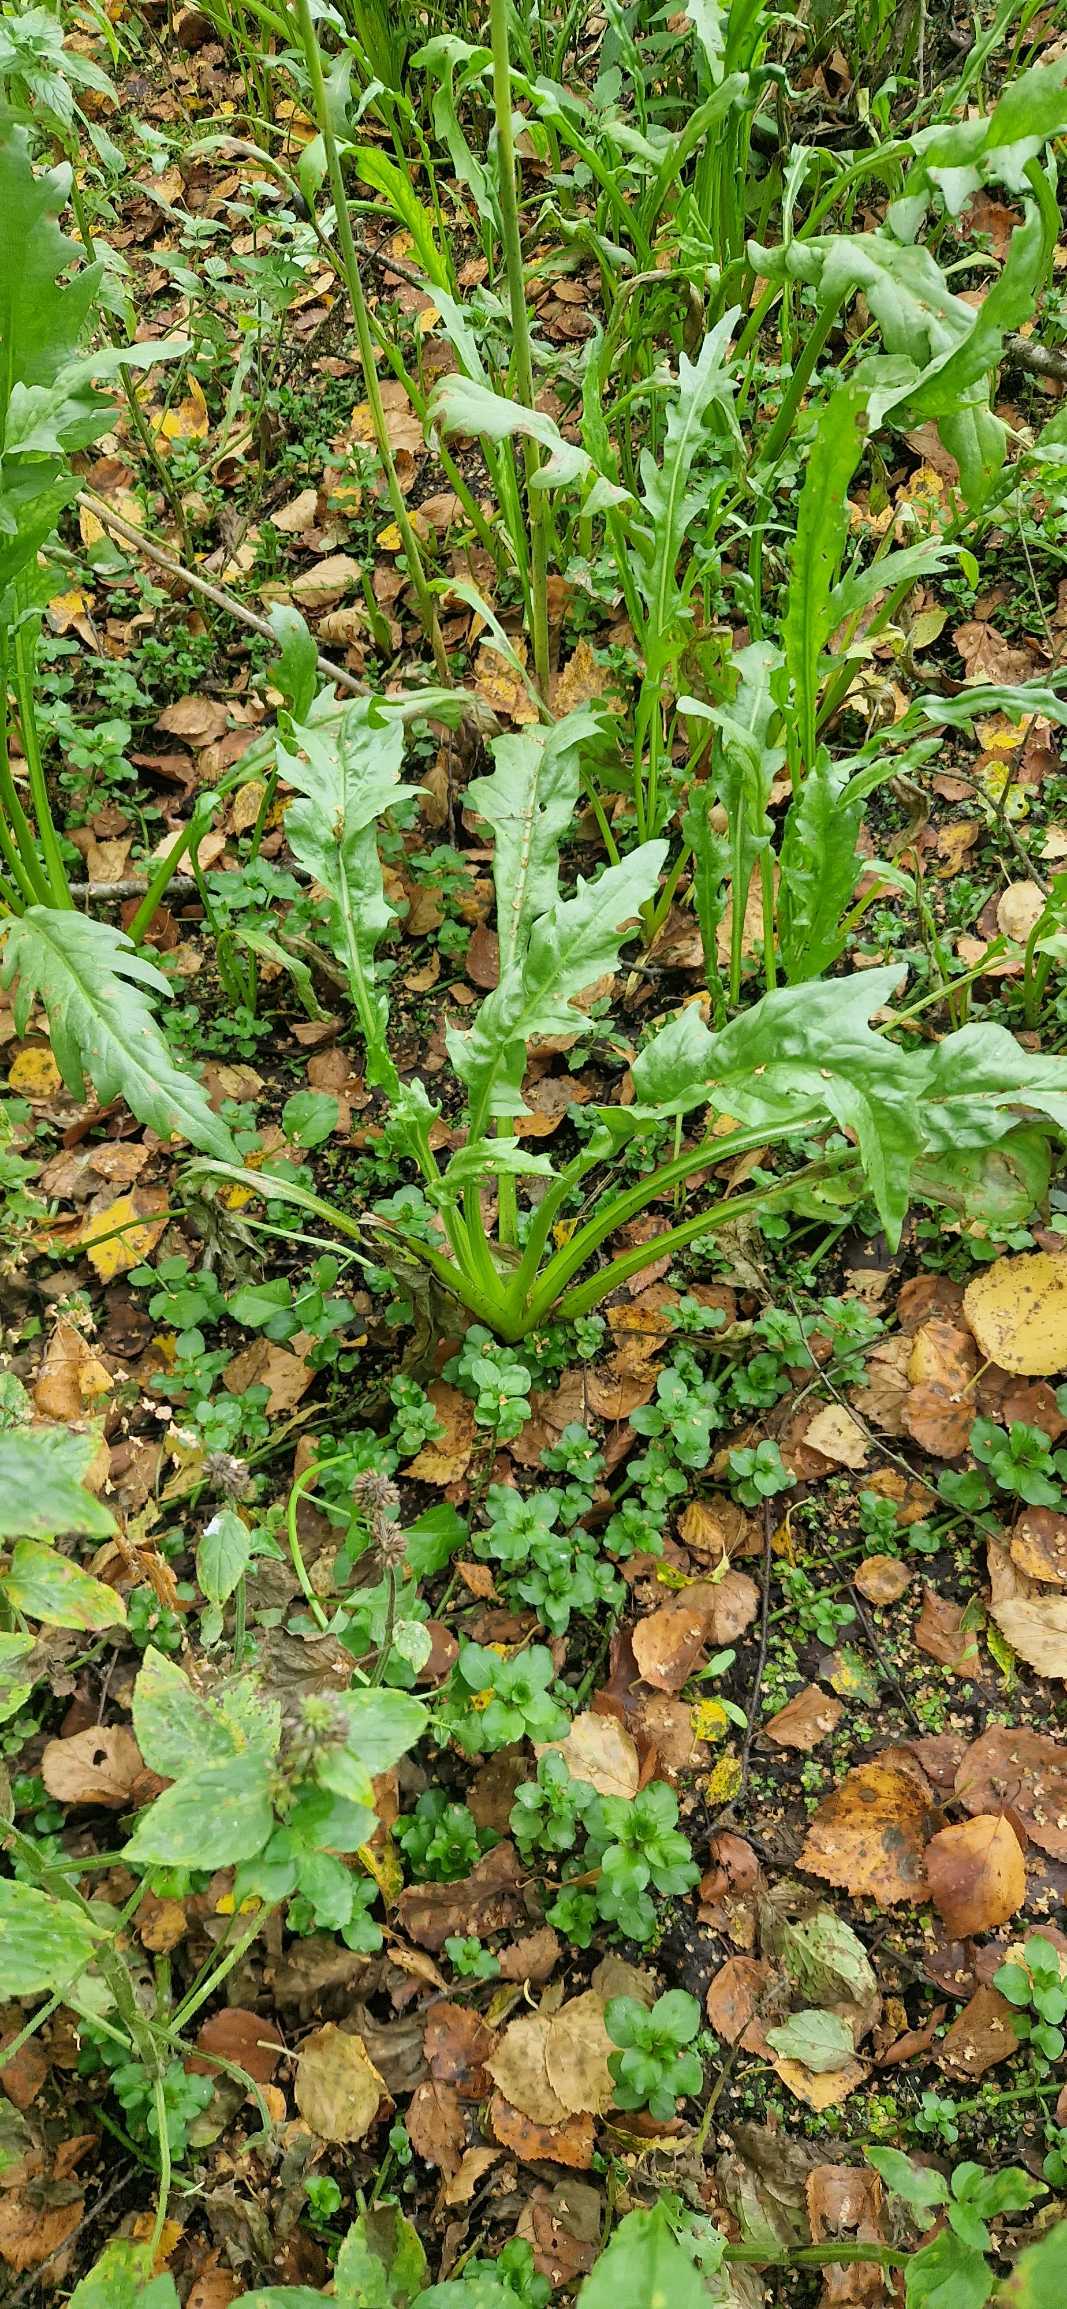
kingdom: Plantae
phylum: Tracheophyta
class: Magnoliopsida
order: Asterales
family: Asteraceae
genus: Tephroseris
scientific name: Tephroseris palustris
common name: Kær-fnokurt
